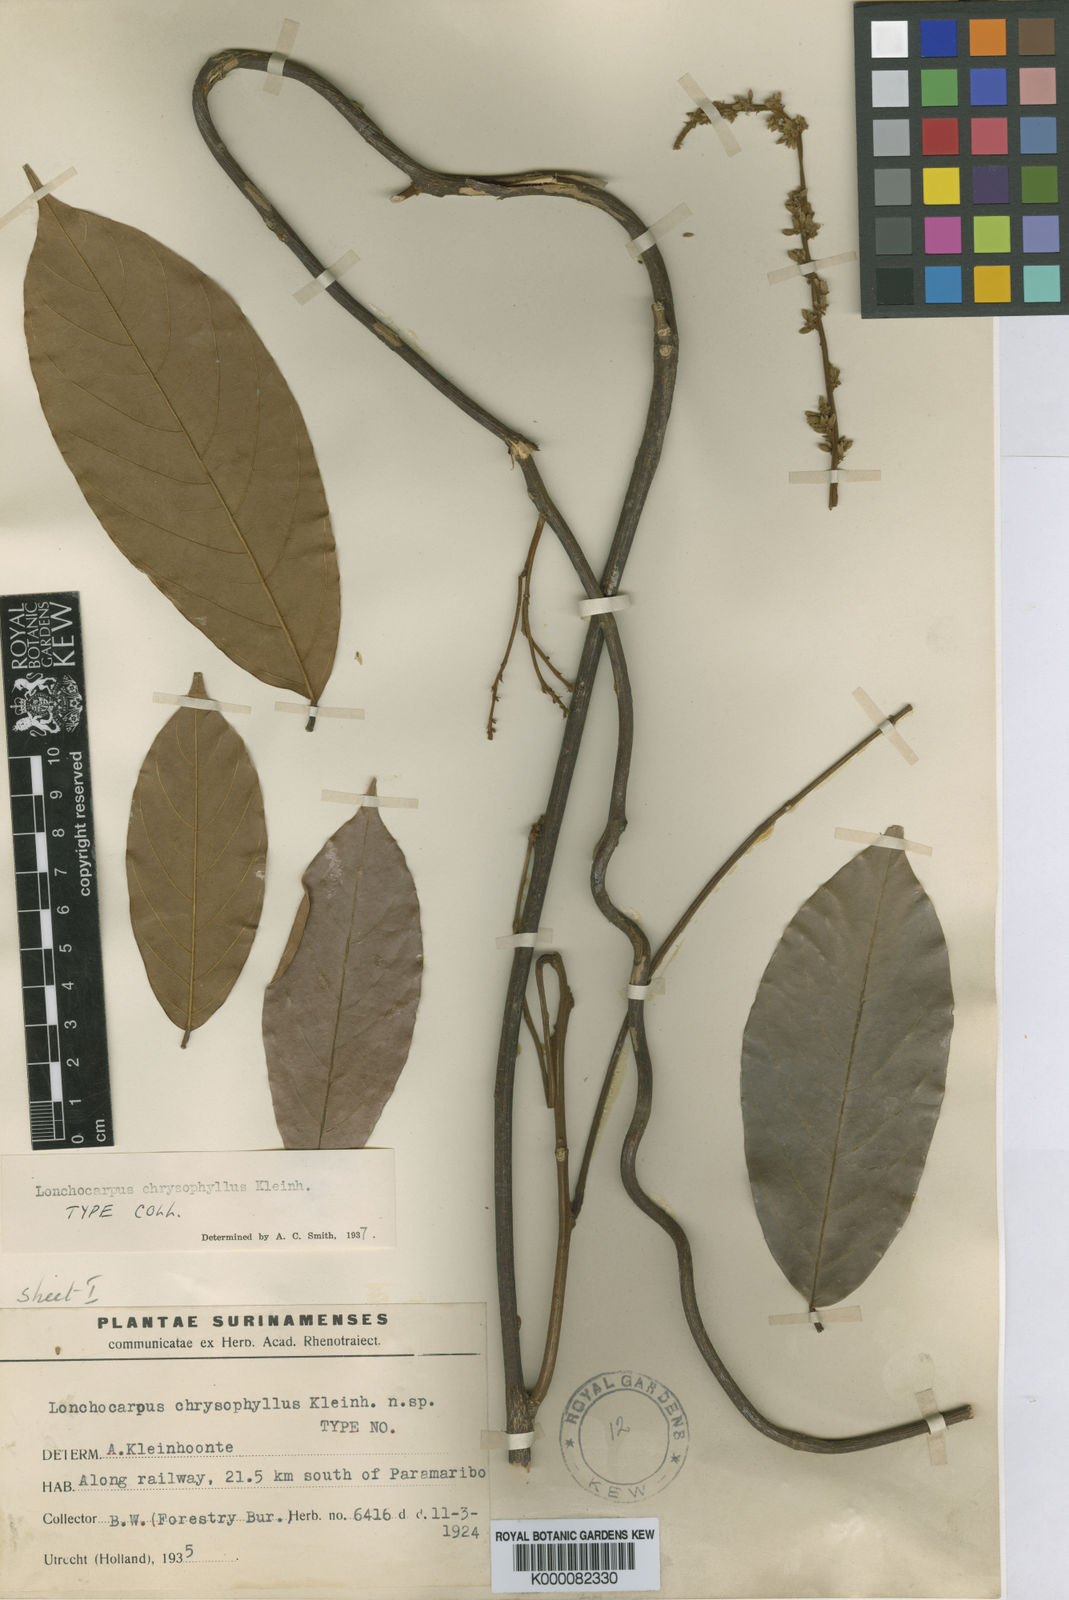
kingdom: Plantae
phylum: Tracheophyta
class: Magnoliopsida
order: Fabales
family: Fabaceae
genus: Deguelia
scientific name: Deguelia chrysophylla
